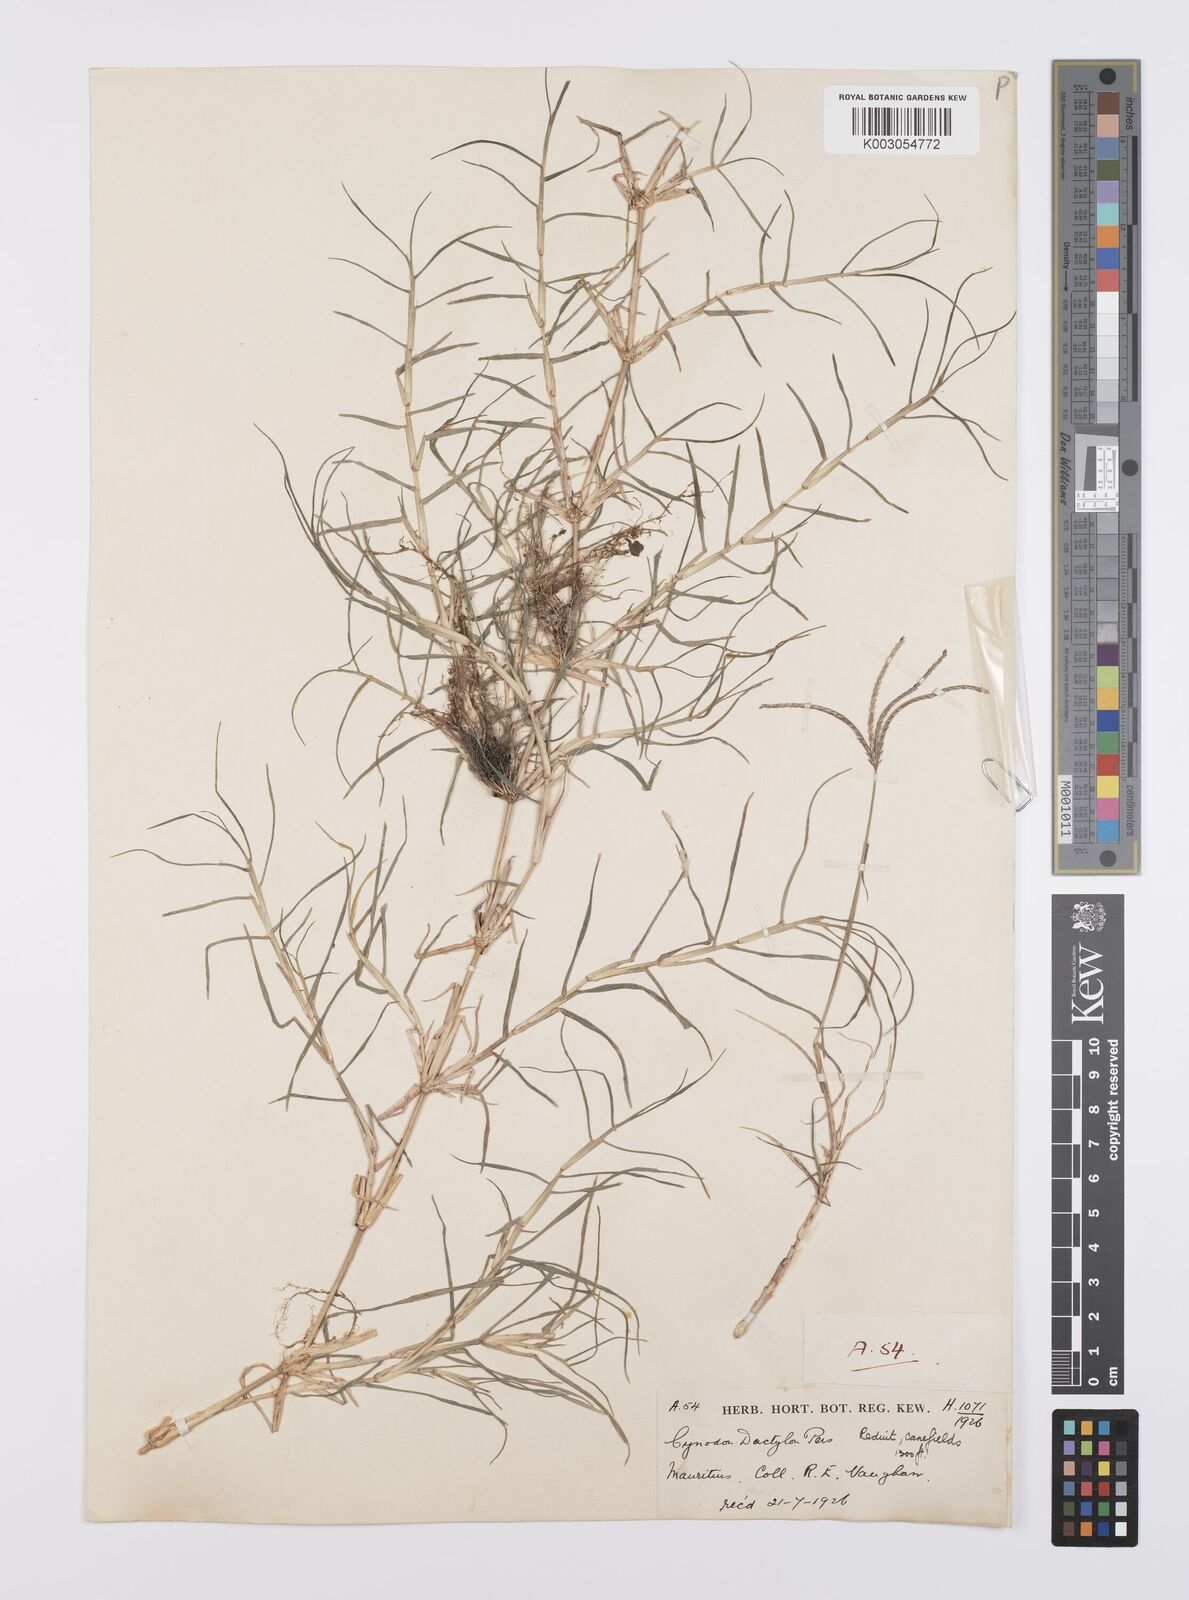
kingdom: Plantae
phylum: Tracheophyta
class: Liliopsida
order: Poales
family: Poaceae
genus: Cynodon
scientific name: Cynodon dactylon
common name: Bermuda grass
